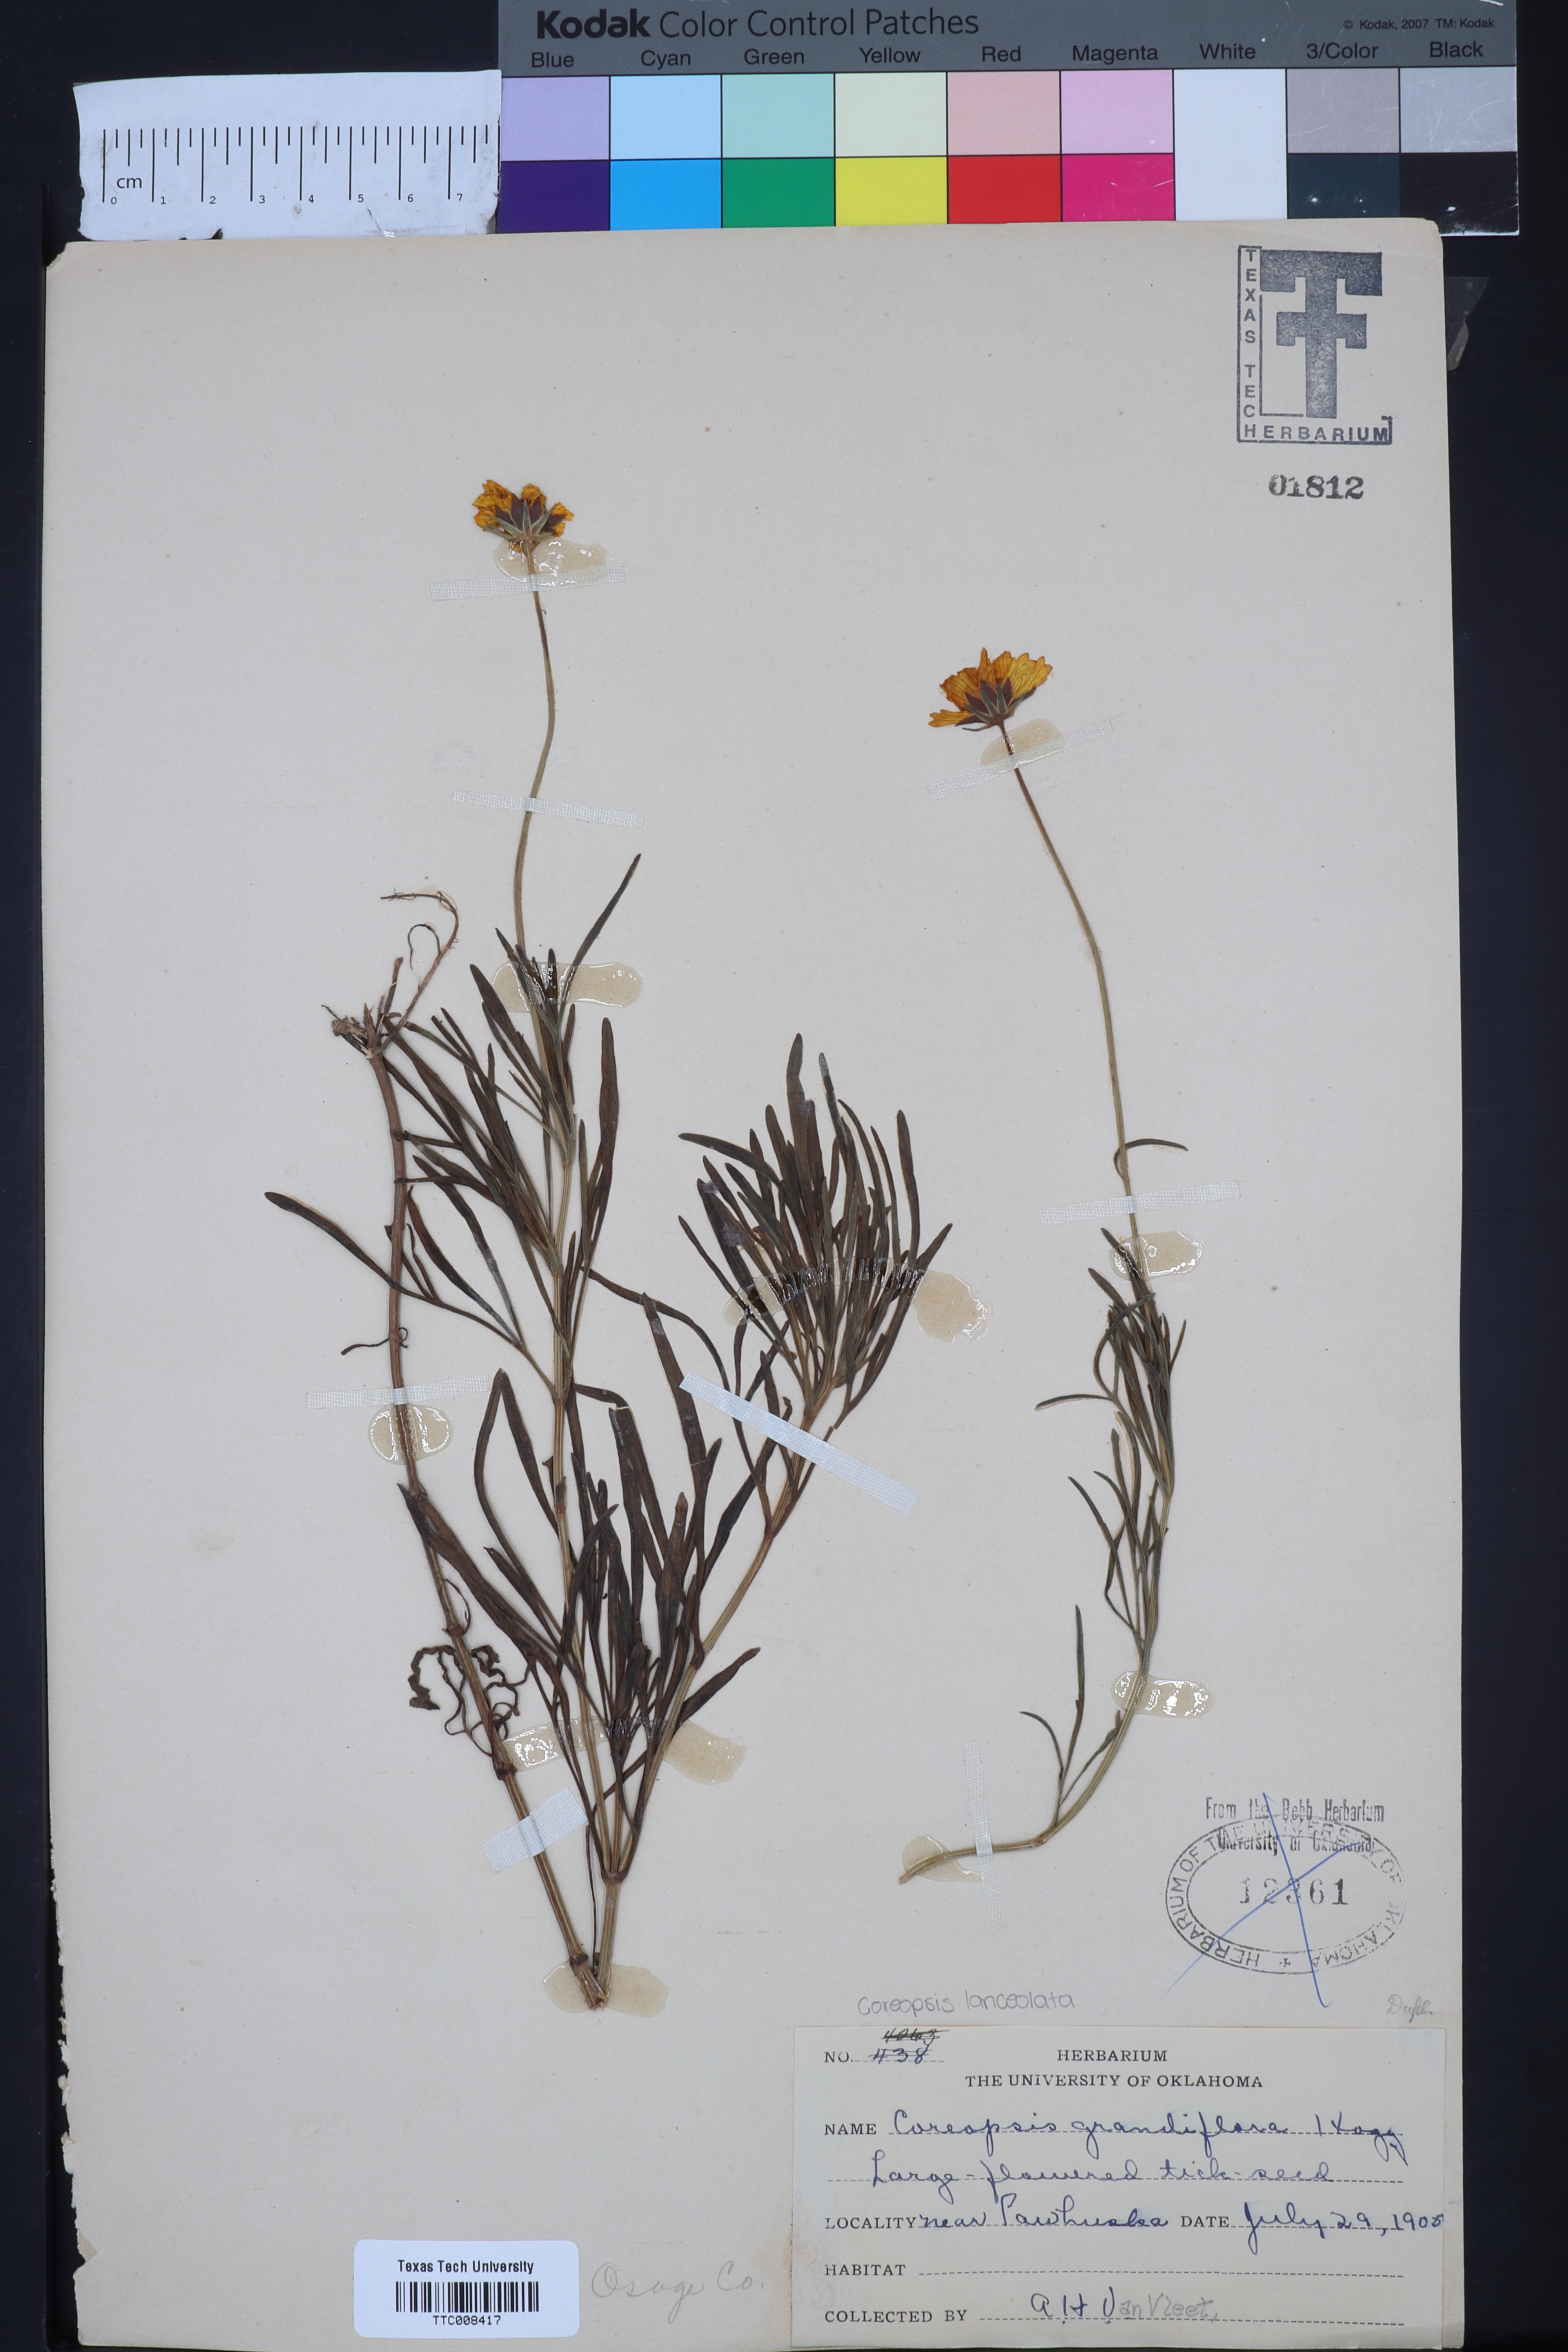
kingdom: Plantae
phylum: Tracheophyta
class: Magnoliopsida
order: Asterales
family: Asteraceae
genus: Coreopsis
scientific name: Coreopsis grandiflora
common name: Large-flowered tickseed
